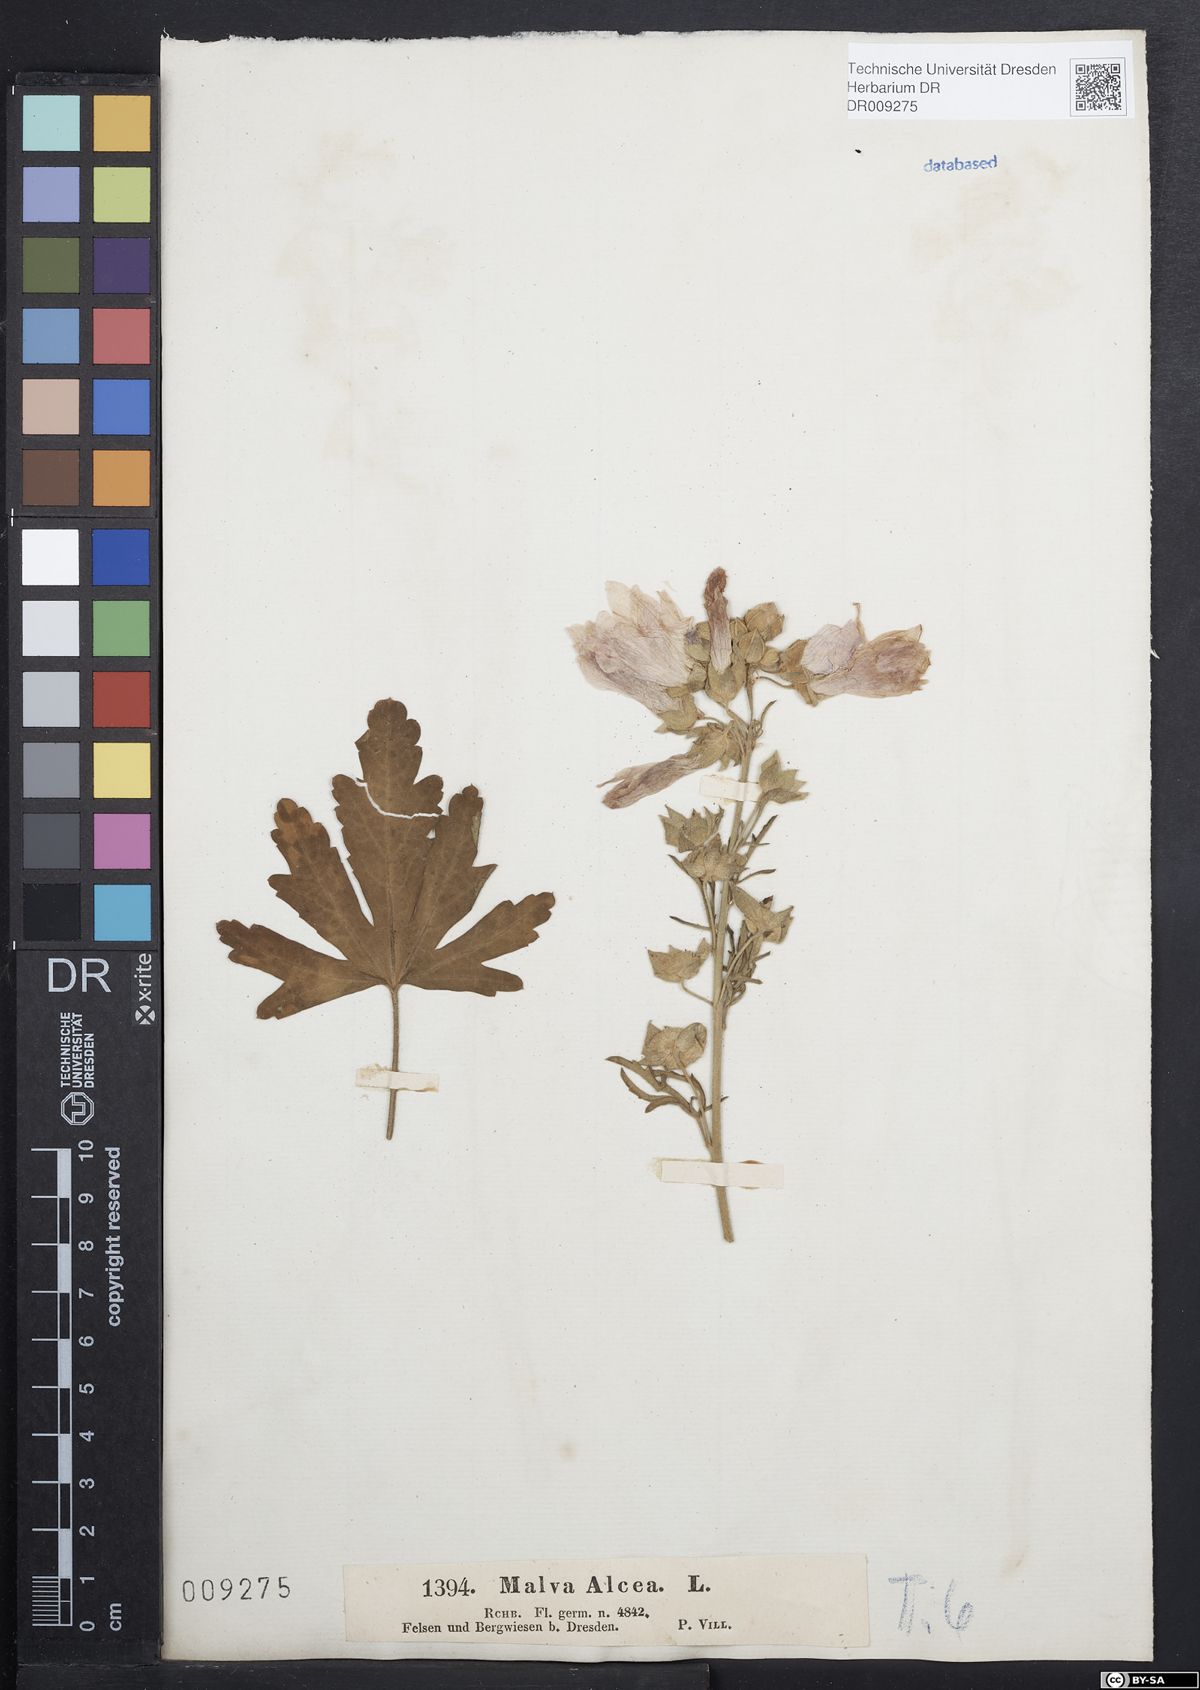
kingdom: Plantae
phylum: Tracheophyta
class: Magnoliopsida
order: Malvales
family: Malvaceae
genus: Malva
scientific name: Malva alcea
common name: Greater musk-mallow
